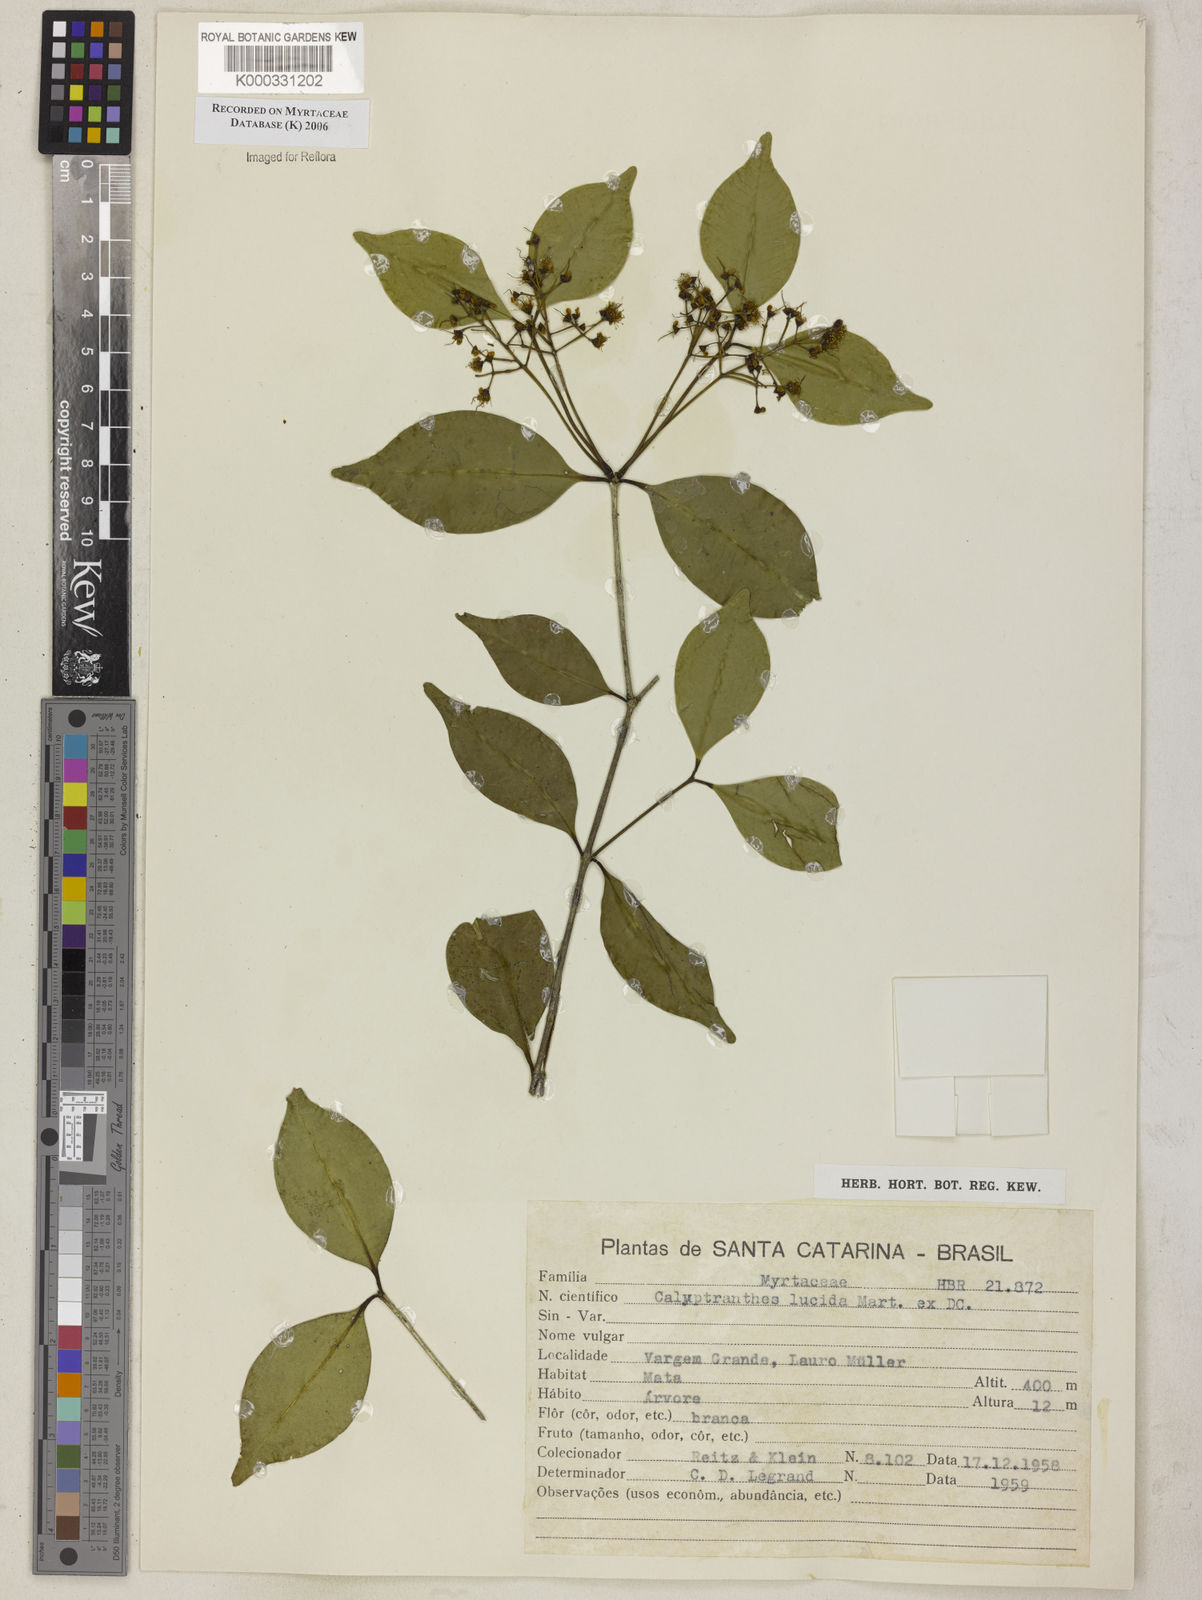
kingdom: Plantae
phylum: Tracheophyta
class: Magnoliopsida
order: Myrtales
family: Myrtaceae
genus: Myrcia
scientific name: Myrcia neolucida
